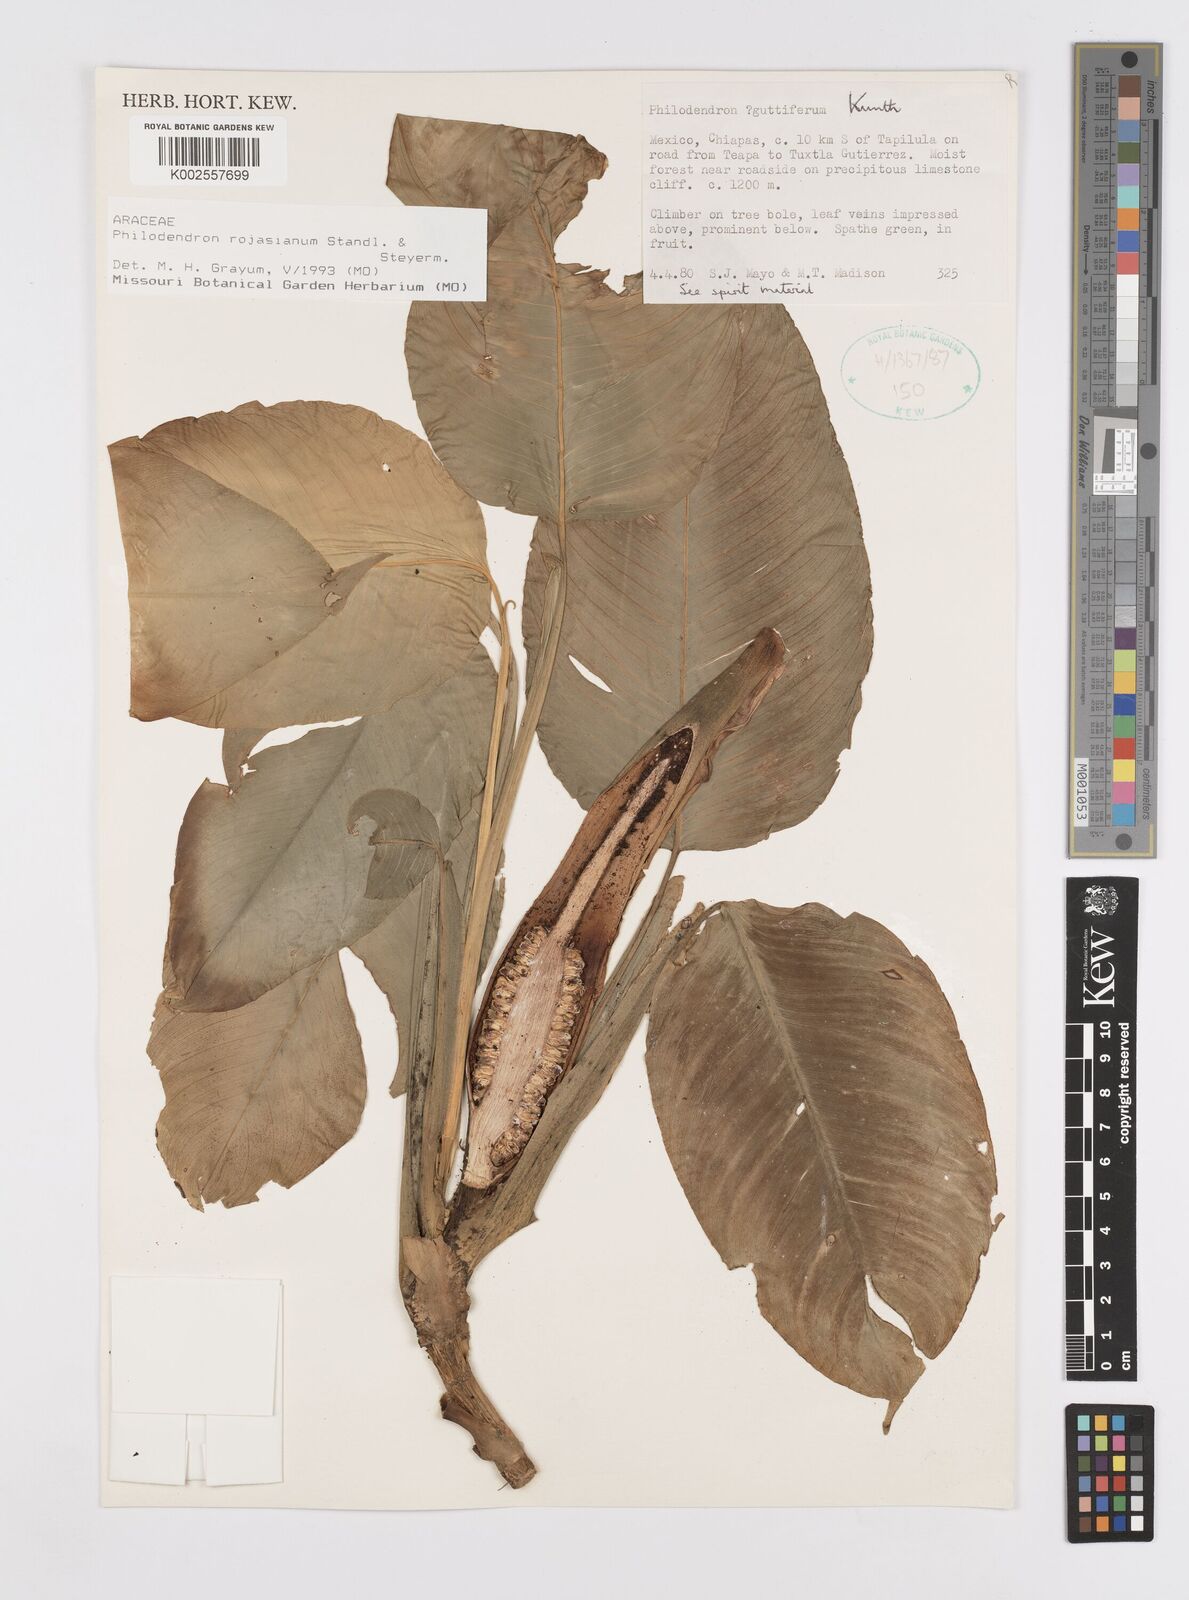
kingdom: Plantae
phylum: Tracheophyta
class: Liliopsida
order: Alismatales
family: Araceae
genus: Philodendron
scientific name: Philodendron rojasianum
